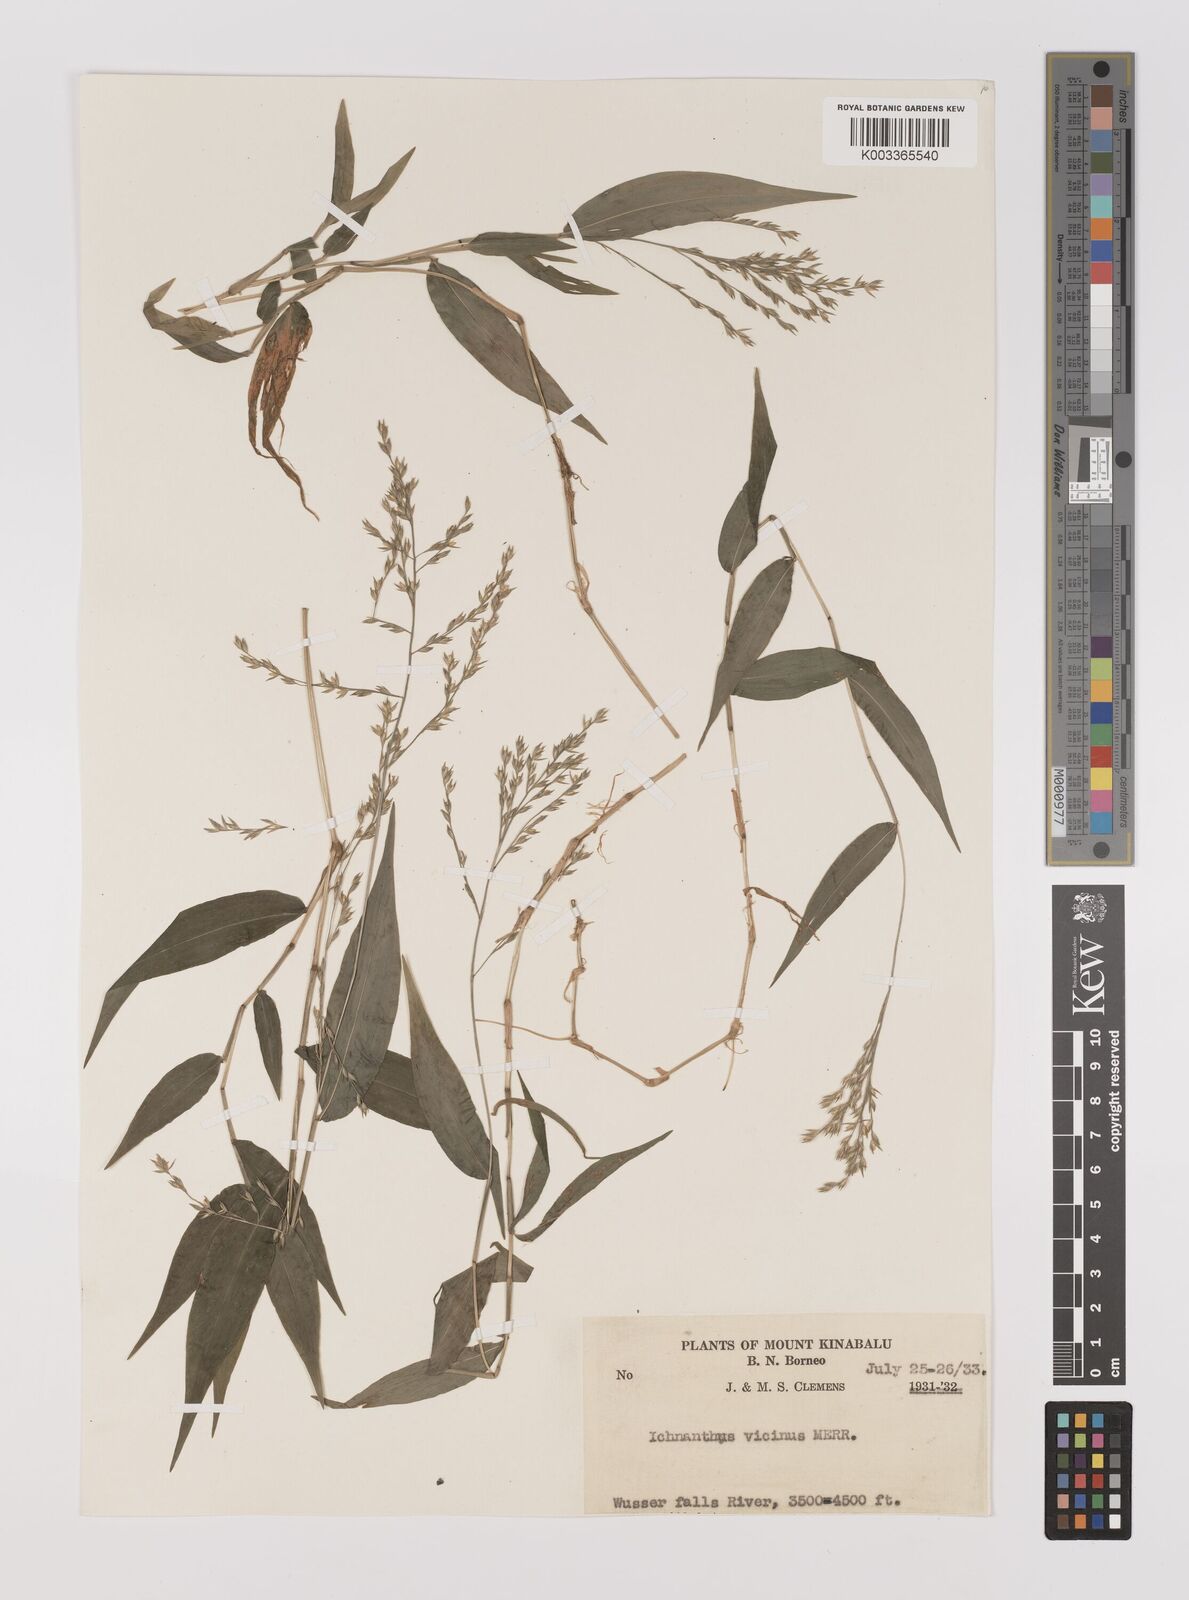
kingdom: Plantae
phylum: Tracheophyta
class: Liliopsida
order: Poales
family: Poaceae
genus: Ichnanthus
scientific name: Ichnanthus pallens
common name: Water grass
